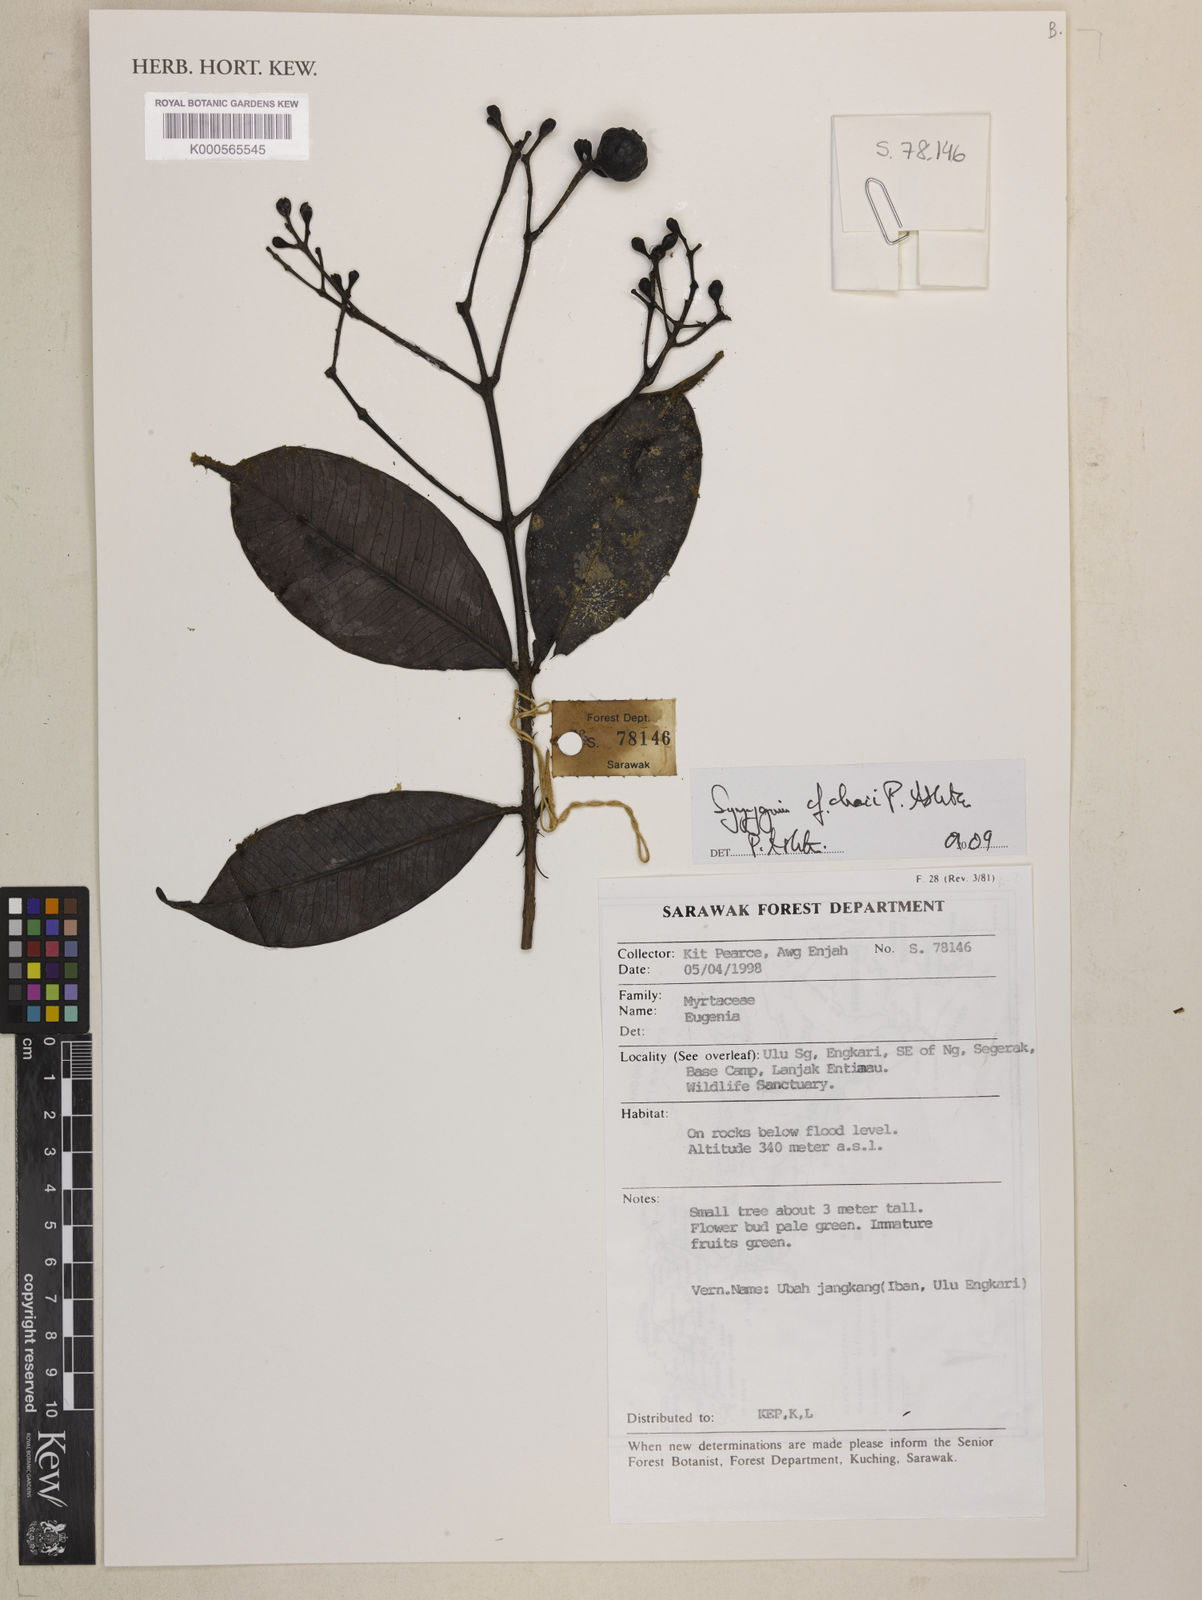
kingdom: Plantae
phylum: Tracheophyta
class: Magnoliopsida
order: Myrtales
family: Myrtaceae
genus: Syzygium
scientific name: Syzygium chaii
